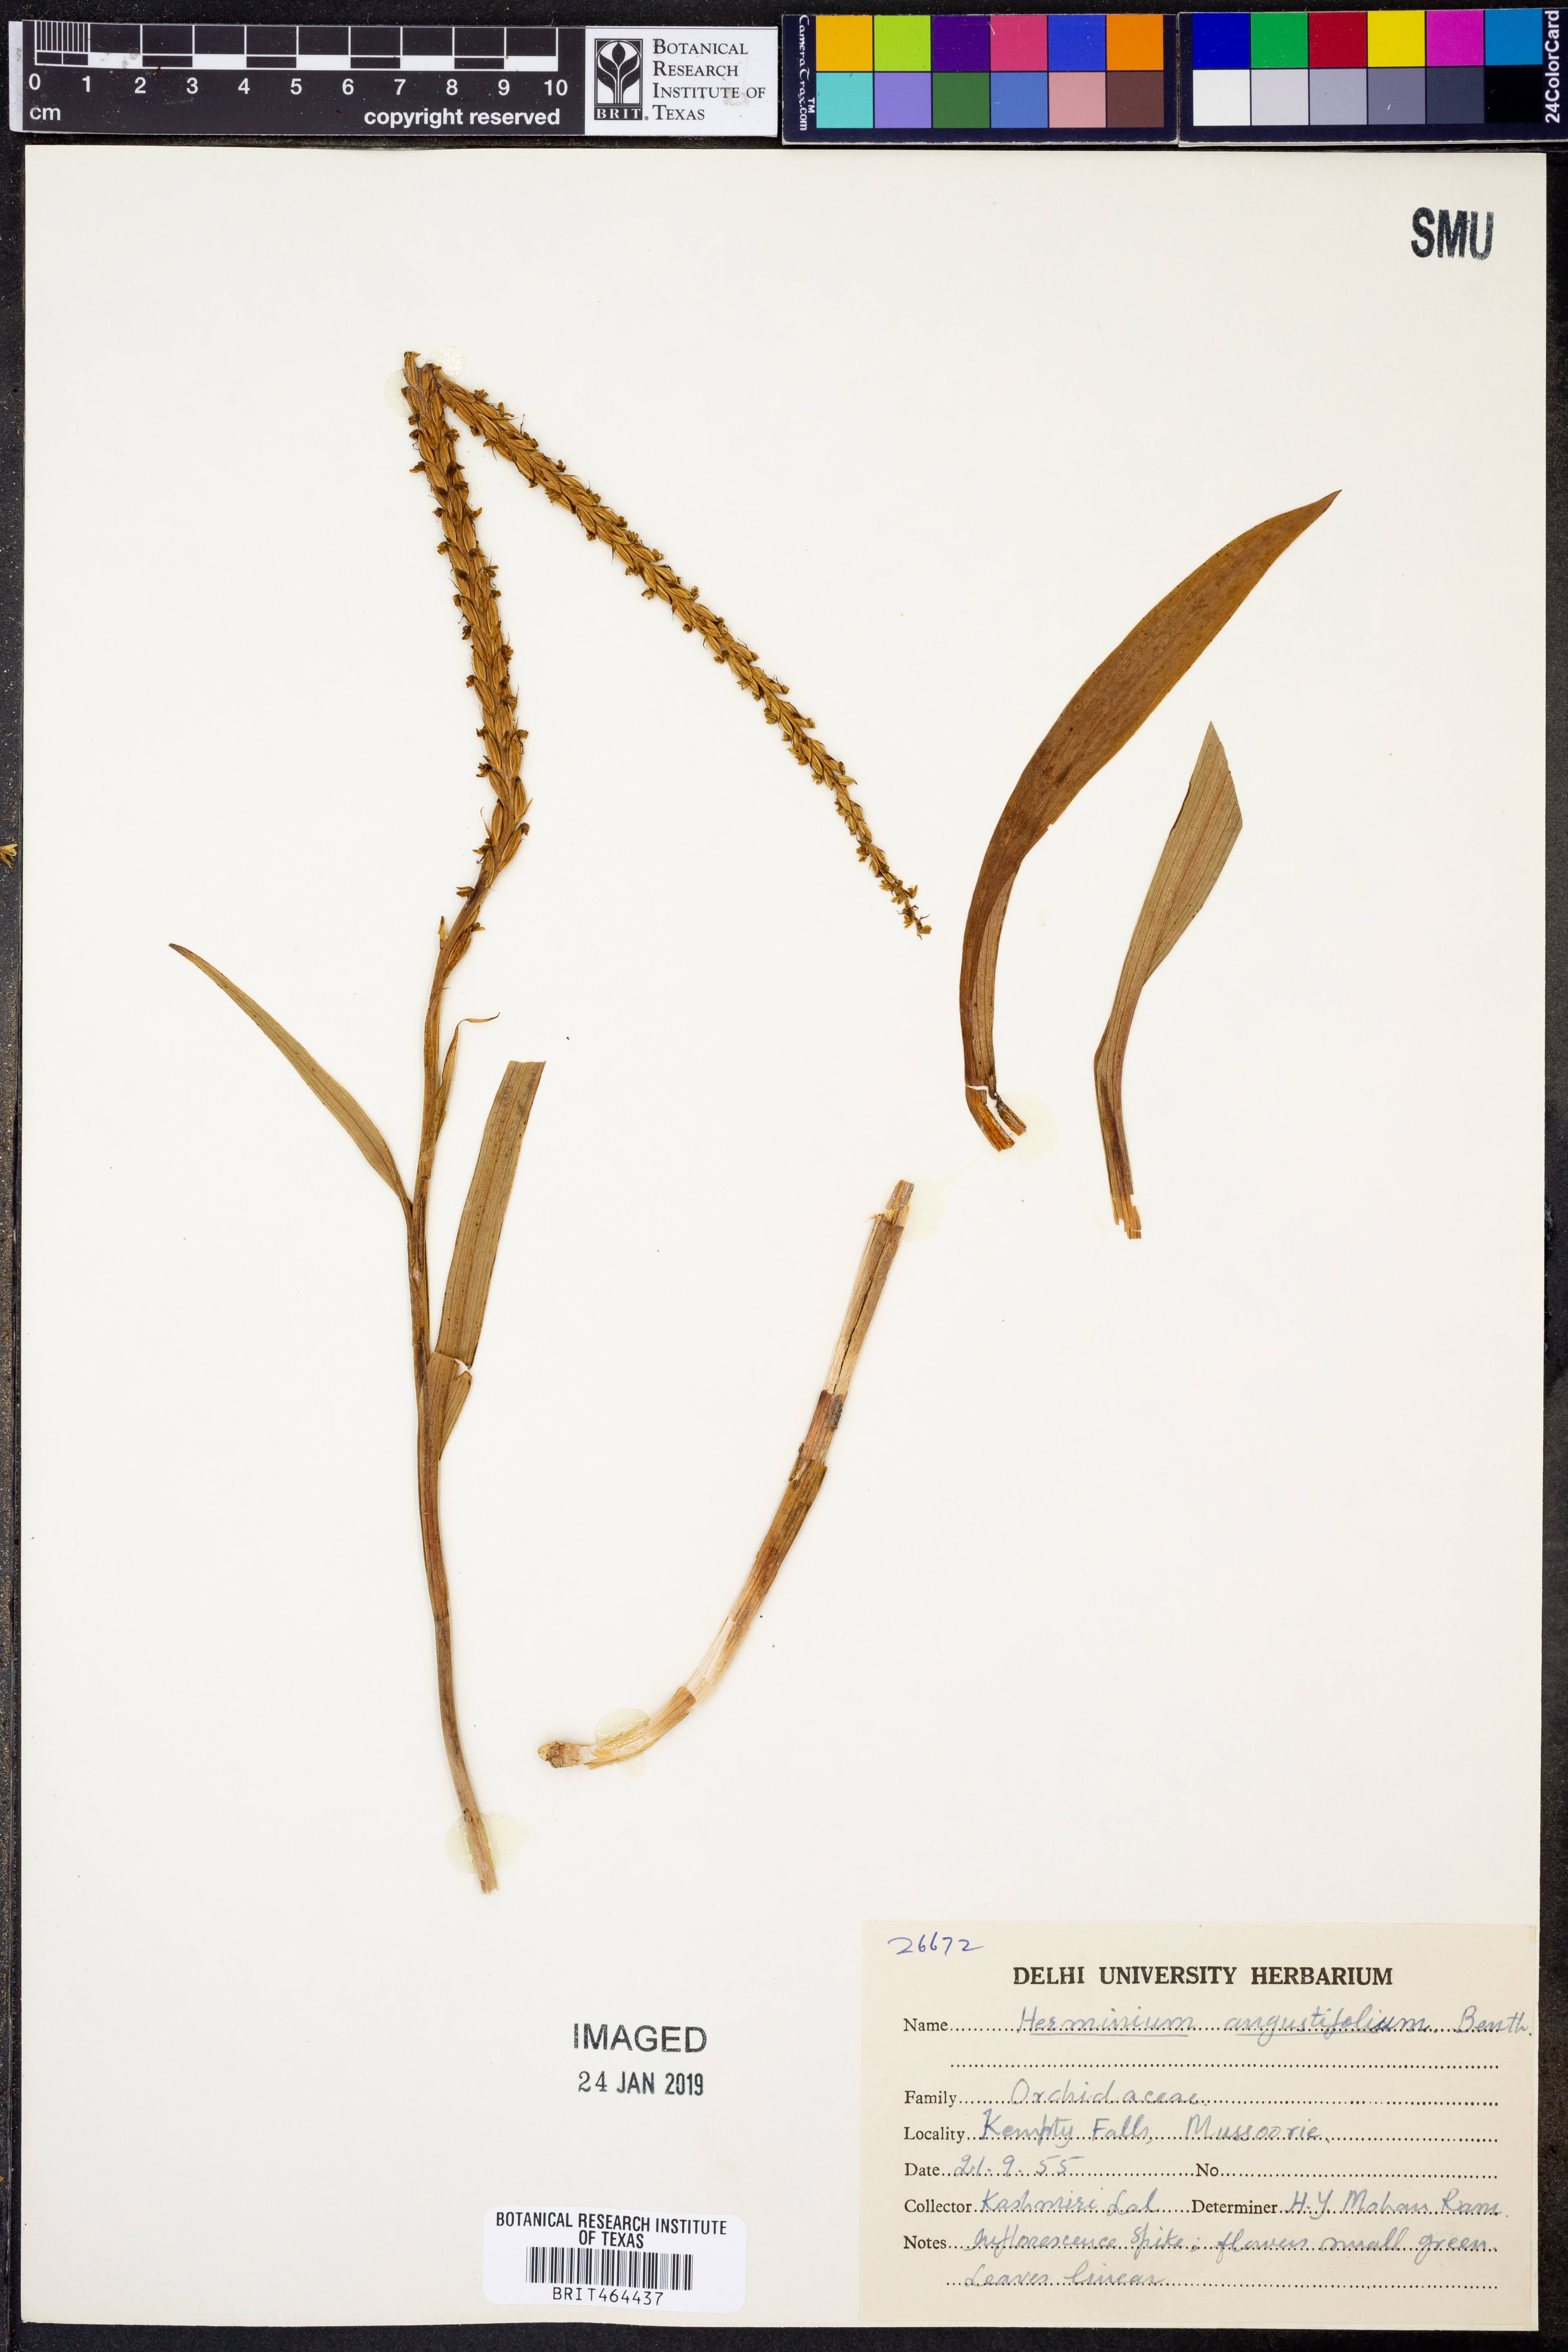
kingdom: Plantae
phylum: Tracheophyta
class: Liliopsida
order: Asparagales
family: Orchidaceae
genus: Herminium
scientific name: Herminium lanceum
